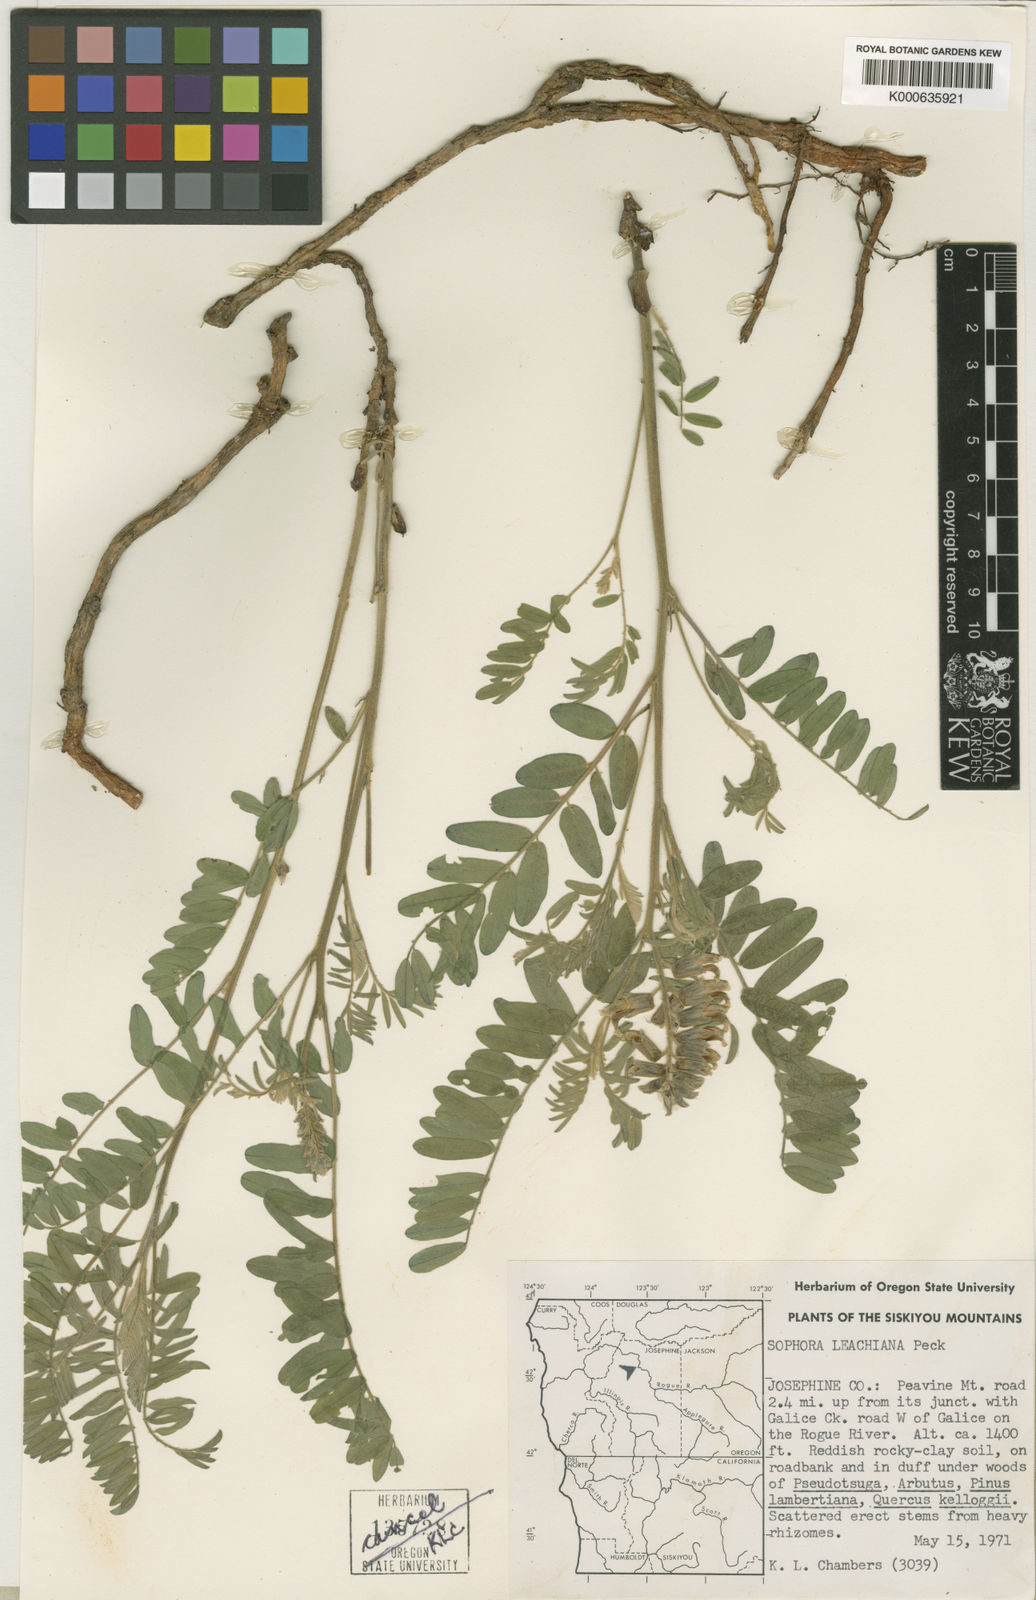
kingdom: Plantae
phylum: Tracheophyta
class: Magnoliopsida
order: Fabales
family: Fabaceae
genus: Sophora
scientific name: Sophora leachiana
